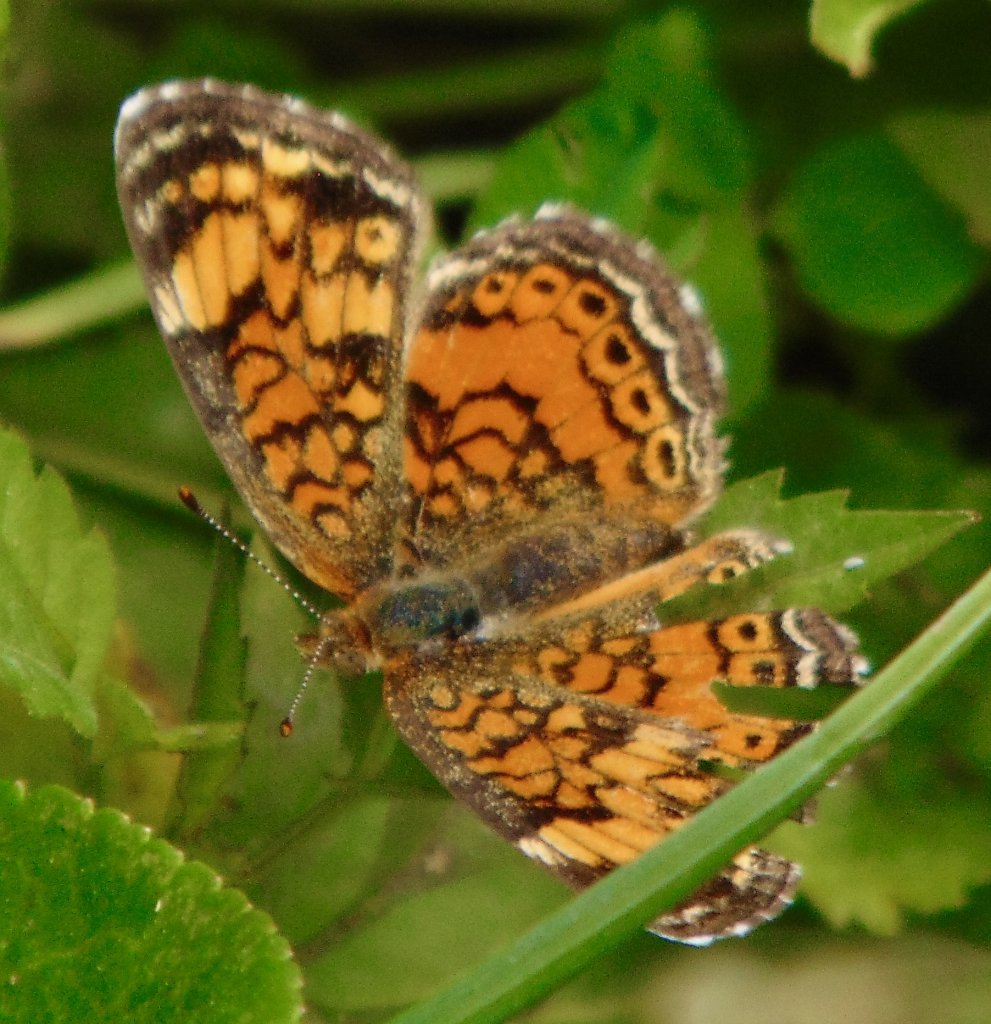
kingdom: Animalia
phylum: Arthropoda
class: Insecta
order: Lepidoptera
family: Nymphalidae
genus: Phyciodes
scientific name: Phyciodes tharos
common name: Pearl Crescent
